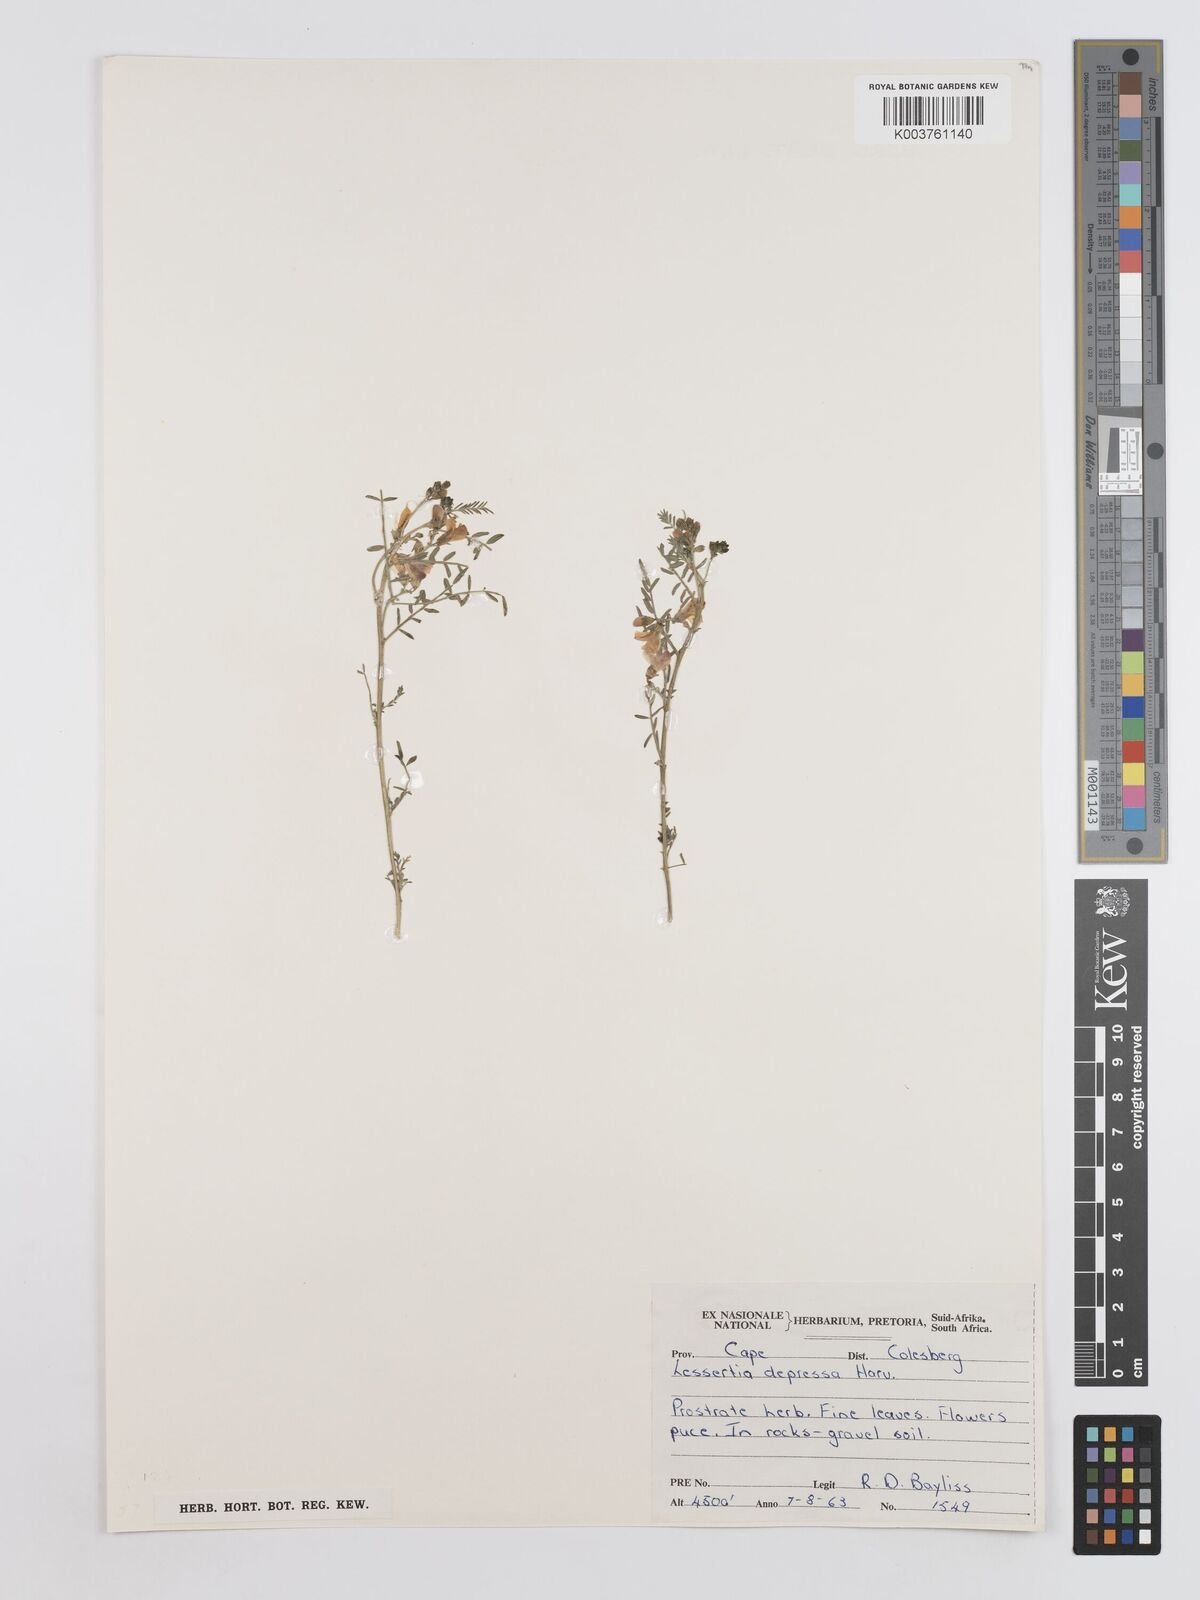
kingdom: Plantae
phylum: Tracheophyta
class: Magnoliopsida
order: Fabales
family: Fabaceae
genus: Lessertia
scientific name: Lessertia depressa
